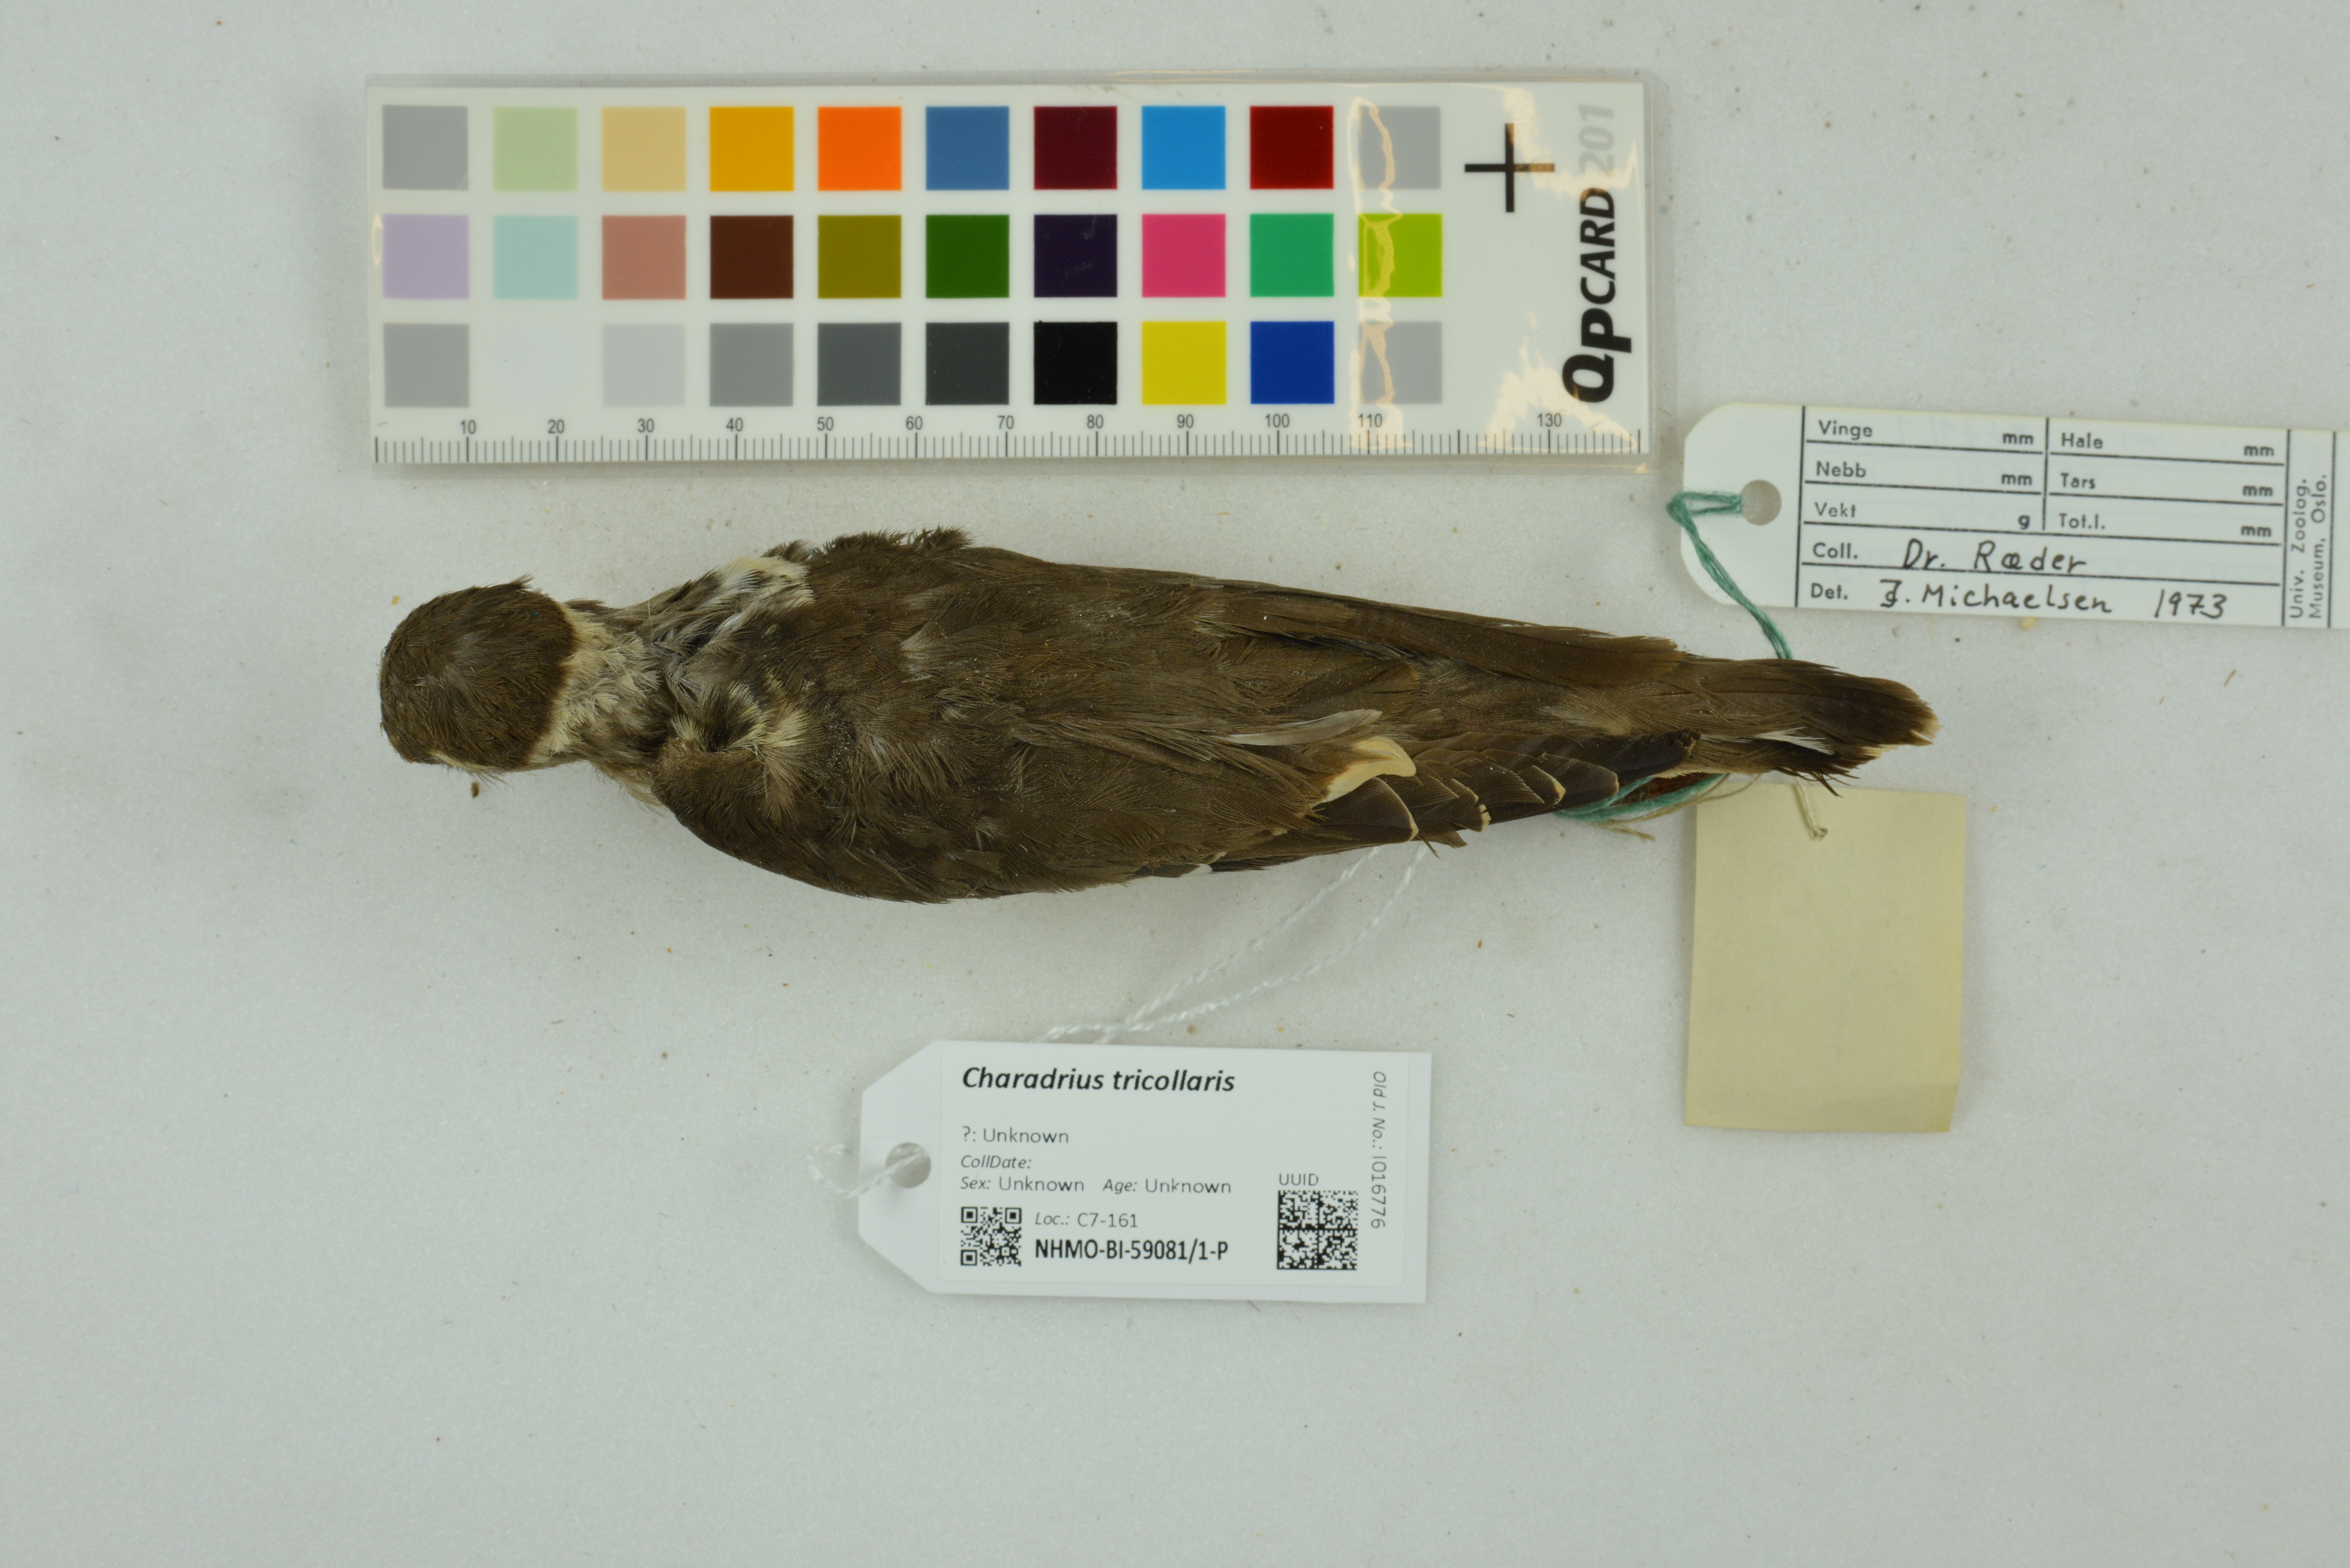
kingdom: Animalia
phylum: Chordata
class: Aves
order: Charadriiformes
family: Charadriidae
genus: Charadrius
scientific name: Charadrius tricollaris
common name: Three-banded plover
